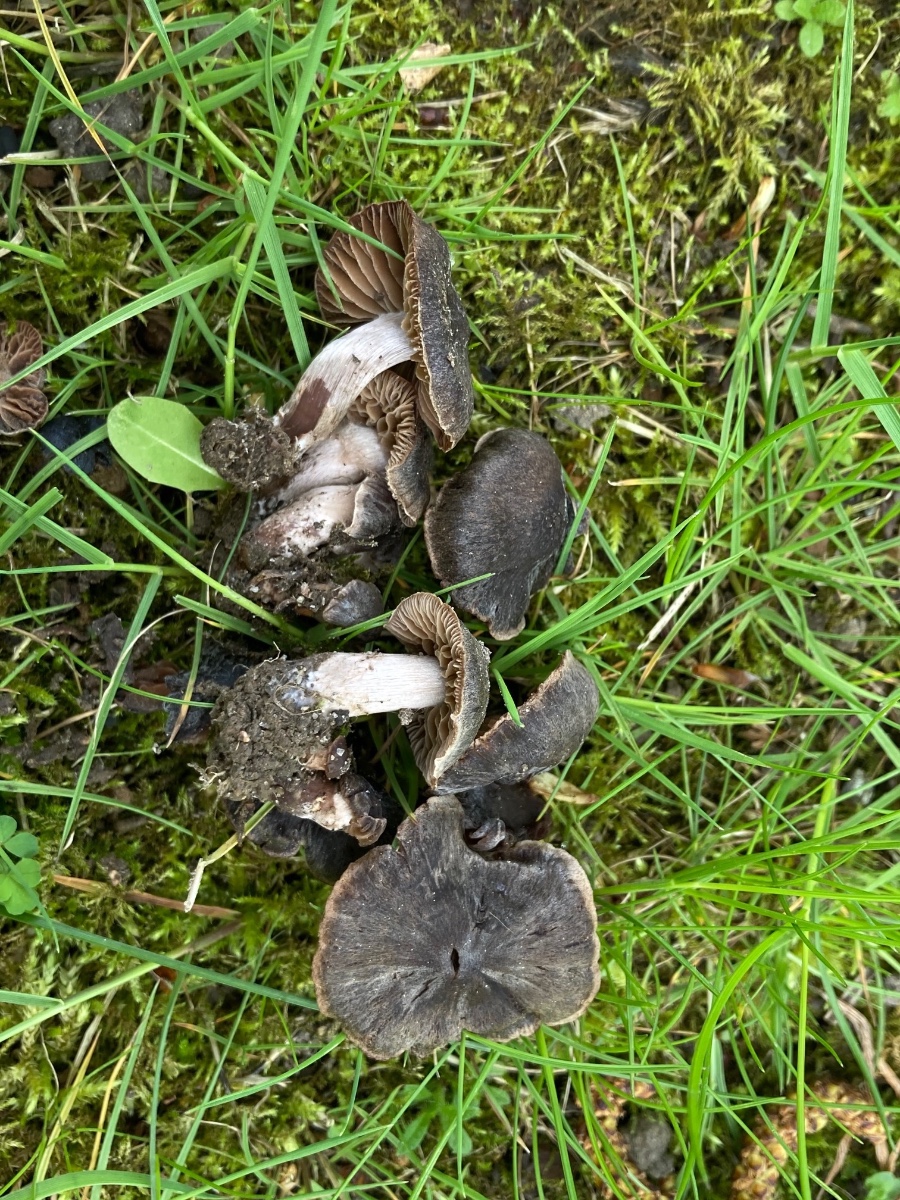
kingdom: Fungi
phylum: Basidiomycota
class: Agaricomycetes
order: Agaricales
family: Cortinariaceae
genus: Cortinarius
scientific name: Cortinarius vernus
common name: sommer-slørhat
